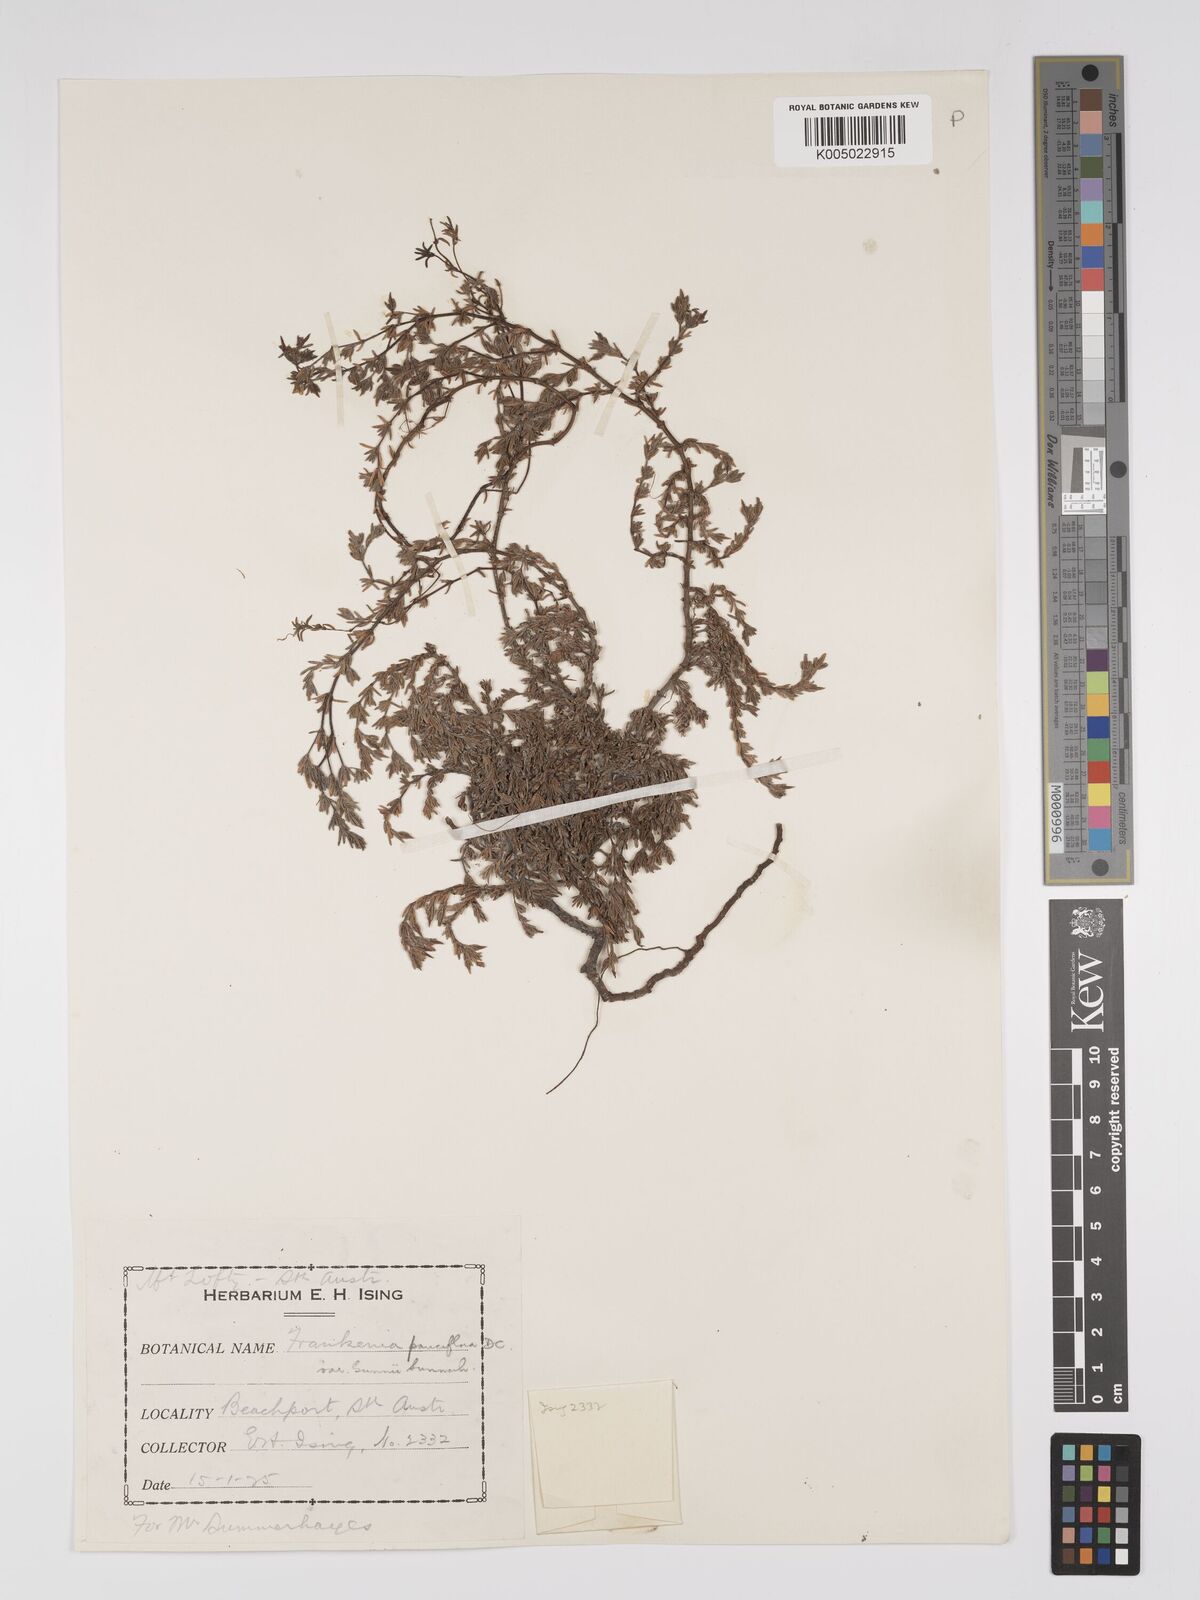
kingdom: Plantae
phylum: Tracheophyta
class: Magnoliopsida
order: Caryophyllales
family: Frankeniaceae
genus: Frankenia
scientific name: Frankenia pauciflora
